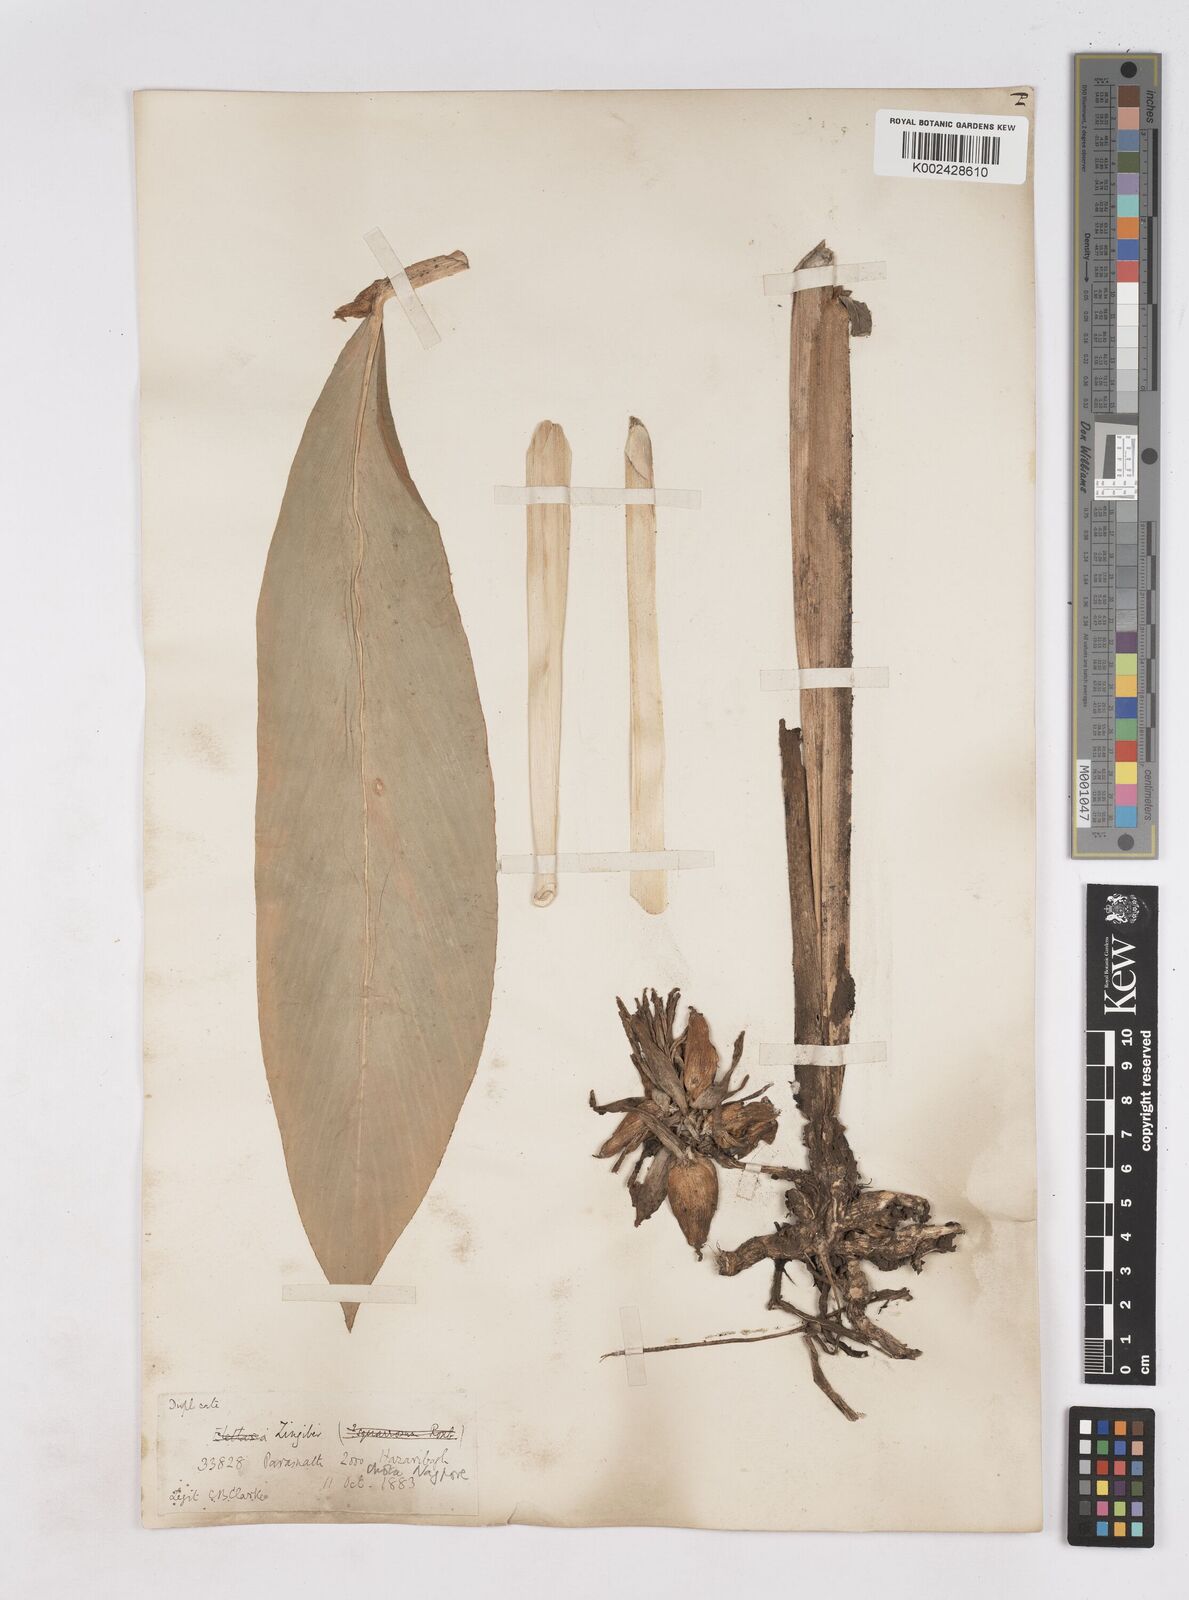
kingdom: Plantae
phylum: Tracheophyta
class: Liliopsida
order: Zingiberales
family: Zingiberaceae
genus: Zingiber
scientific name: Zingiber roseum
